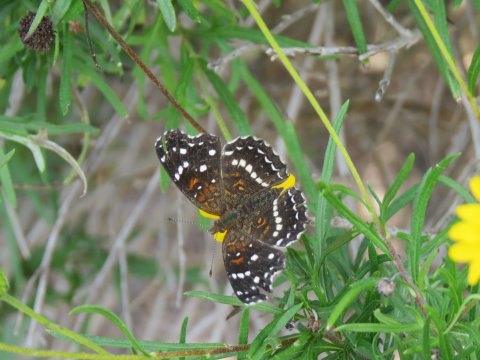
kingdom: Animalia
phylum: Arthropoda
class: Insecta
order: Lepidoptera
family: Nymphalidae
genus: Anthanassa
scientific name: Anthanassa texana
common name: Texan Crescent
